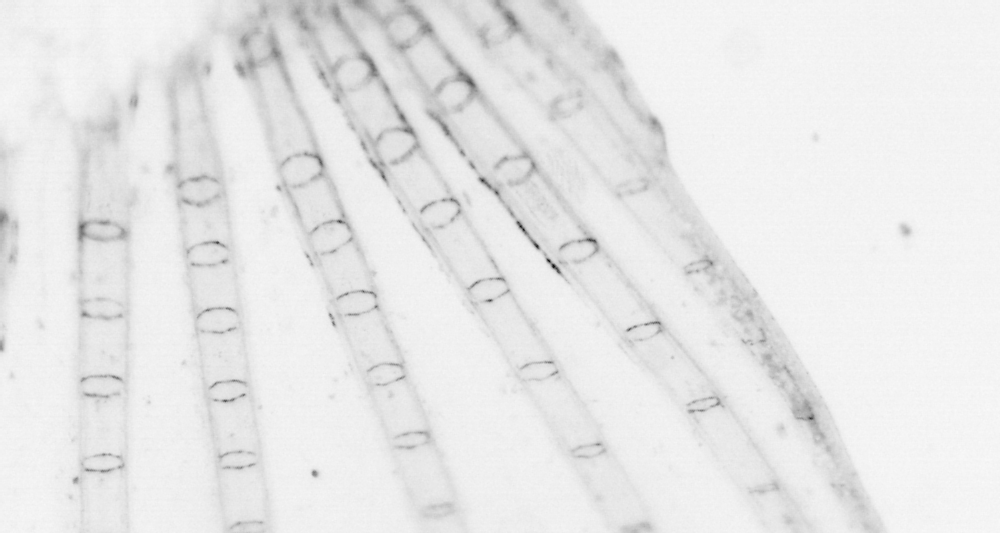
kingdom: Animalia
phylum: Chordata
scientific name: Chordata
